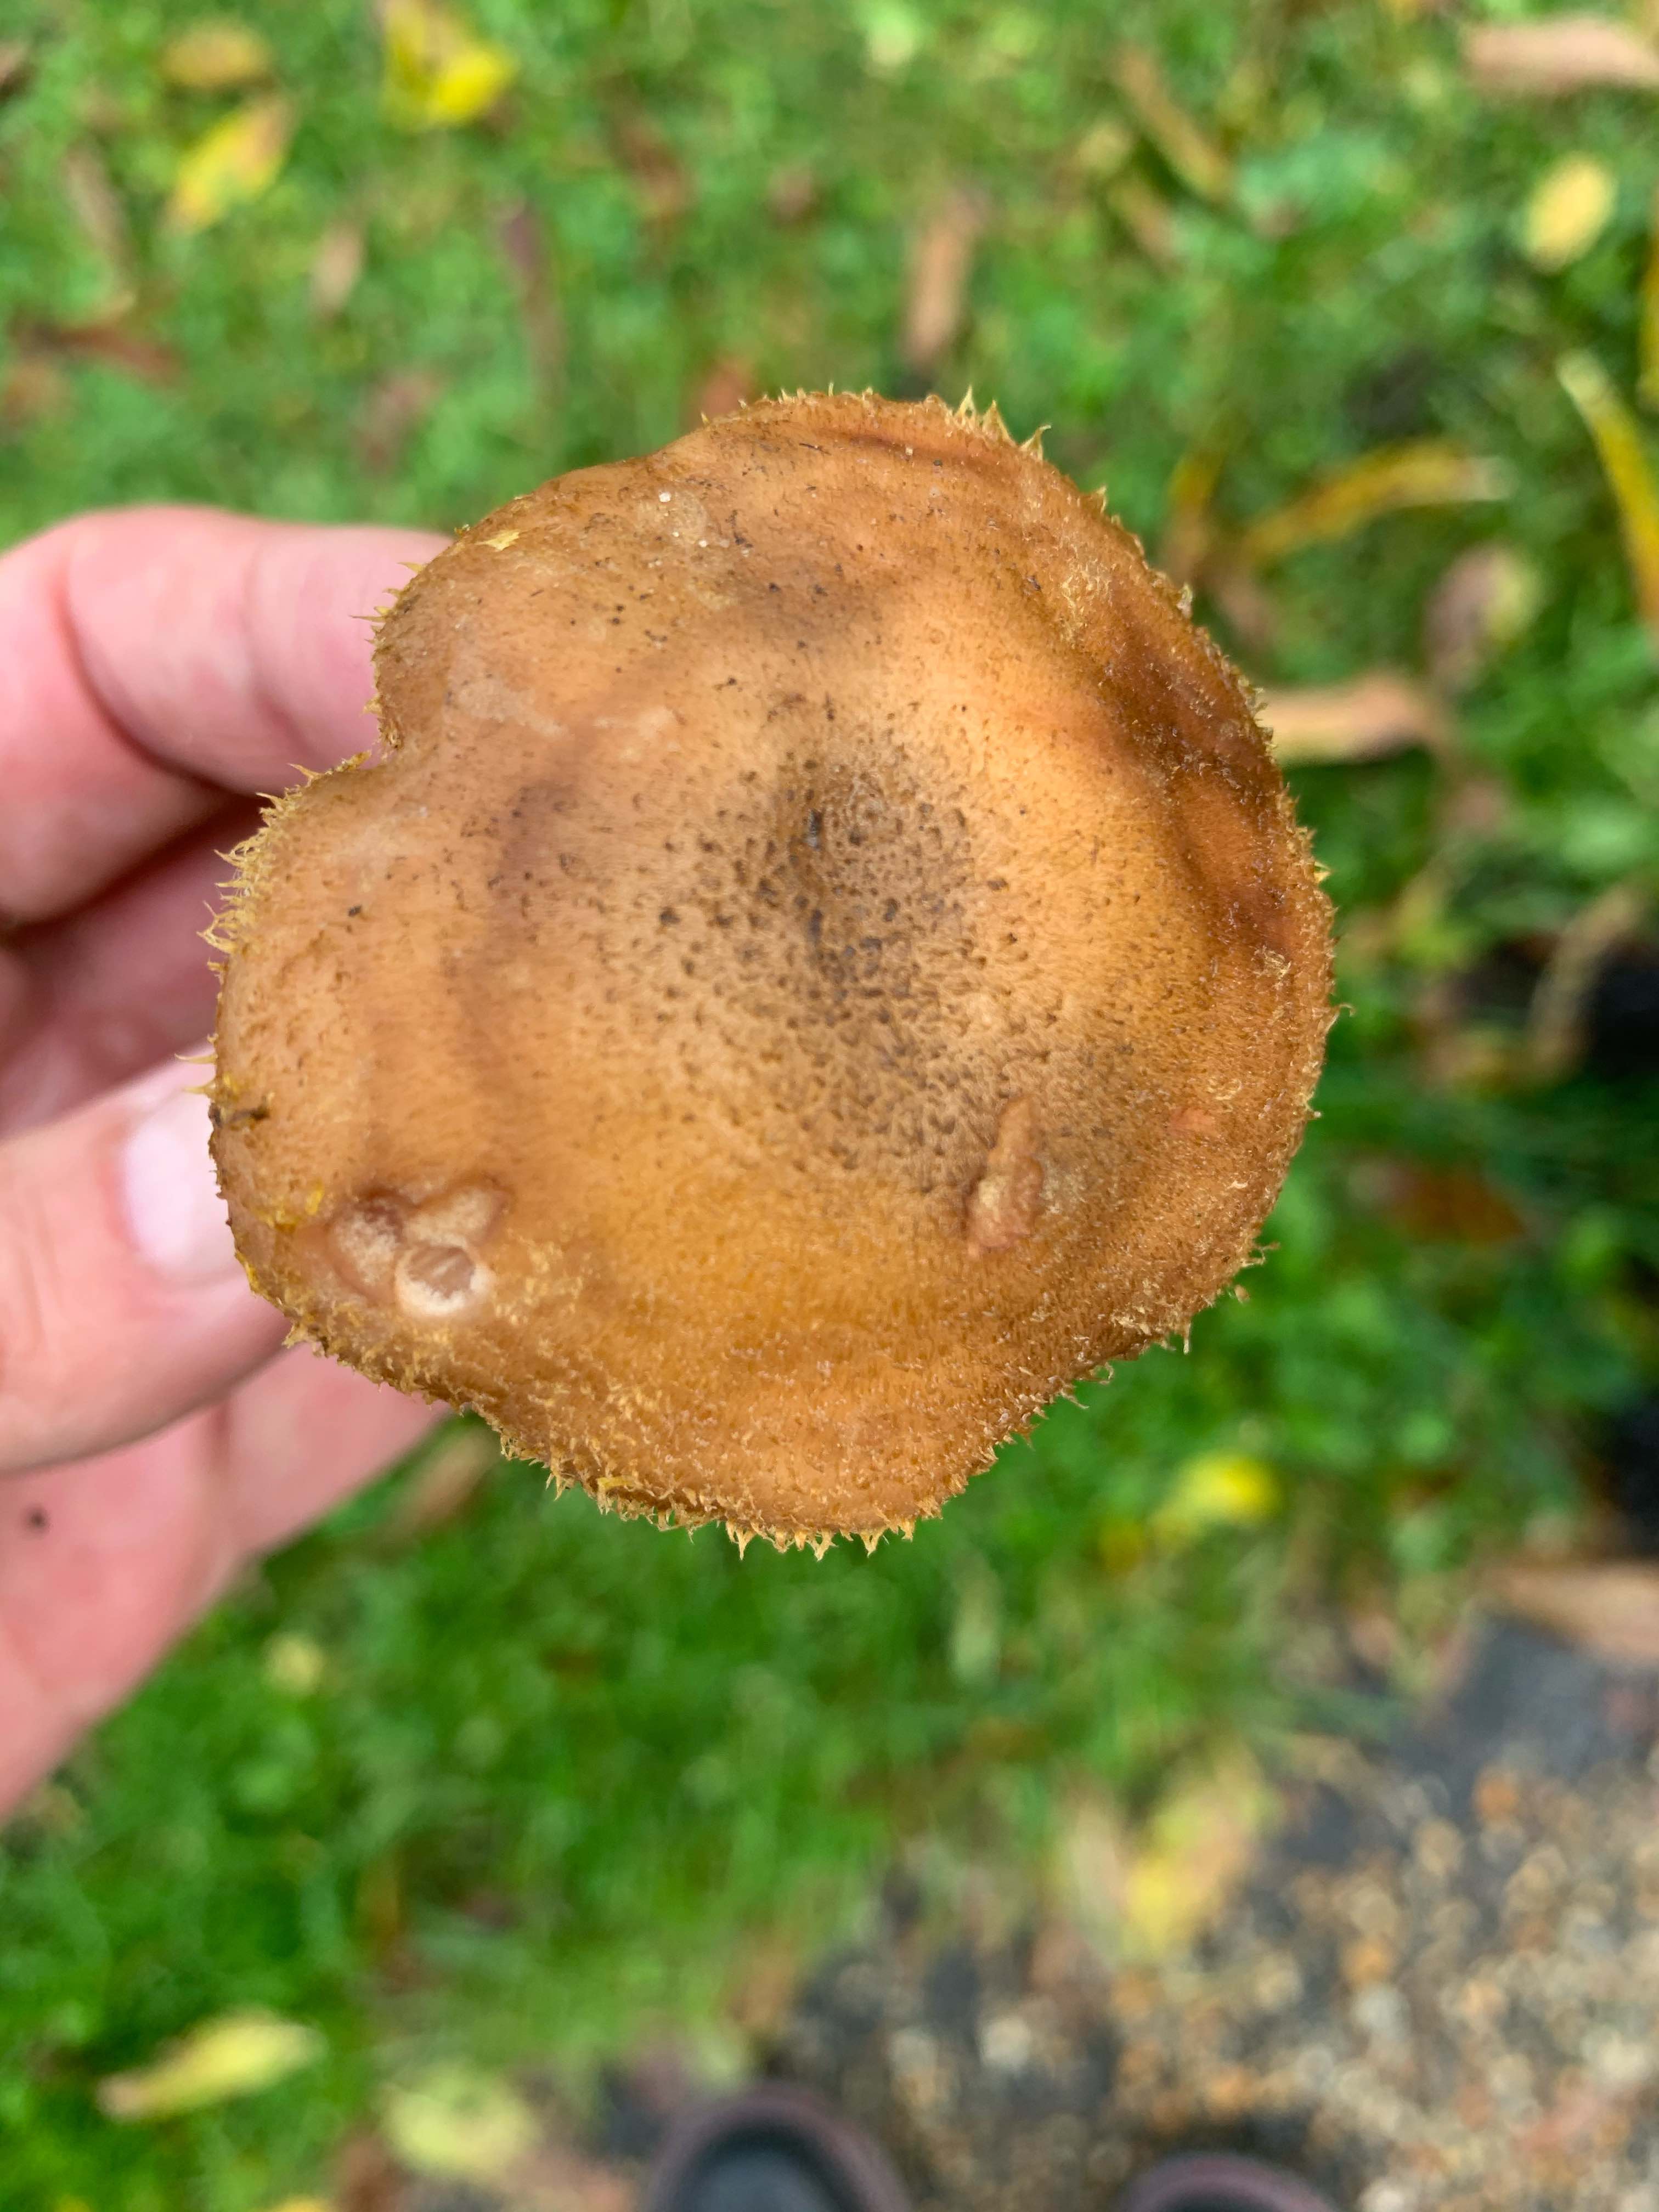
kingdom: Fungi
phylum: Basidiomycota
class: Agaricomycetes
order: Agaricales
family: Physalacriaceae
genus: Armillaria
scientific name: Armillaria lutea
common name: køllestokket honningsvamp
